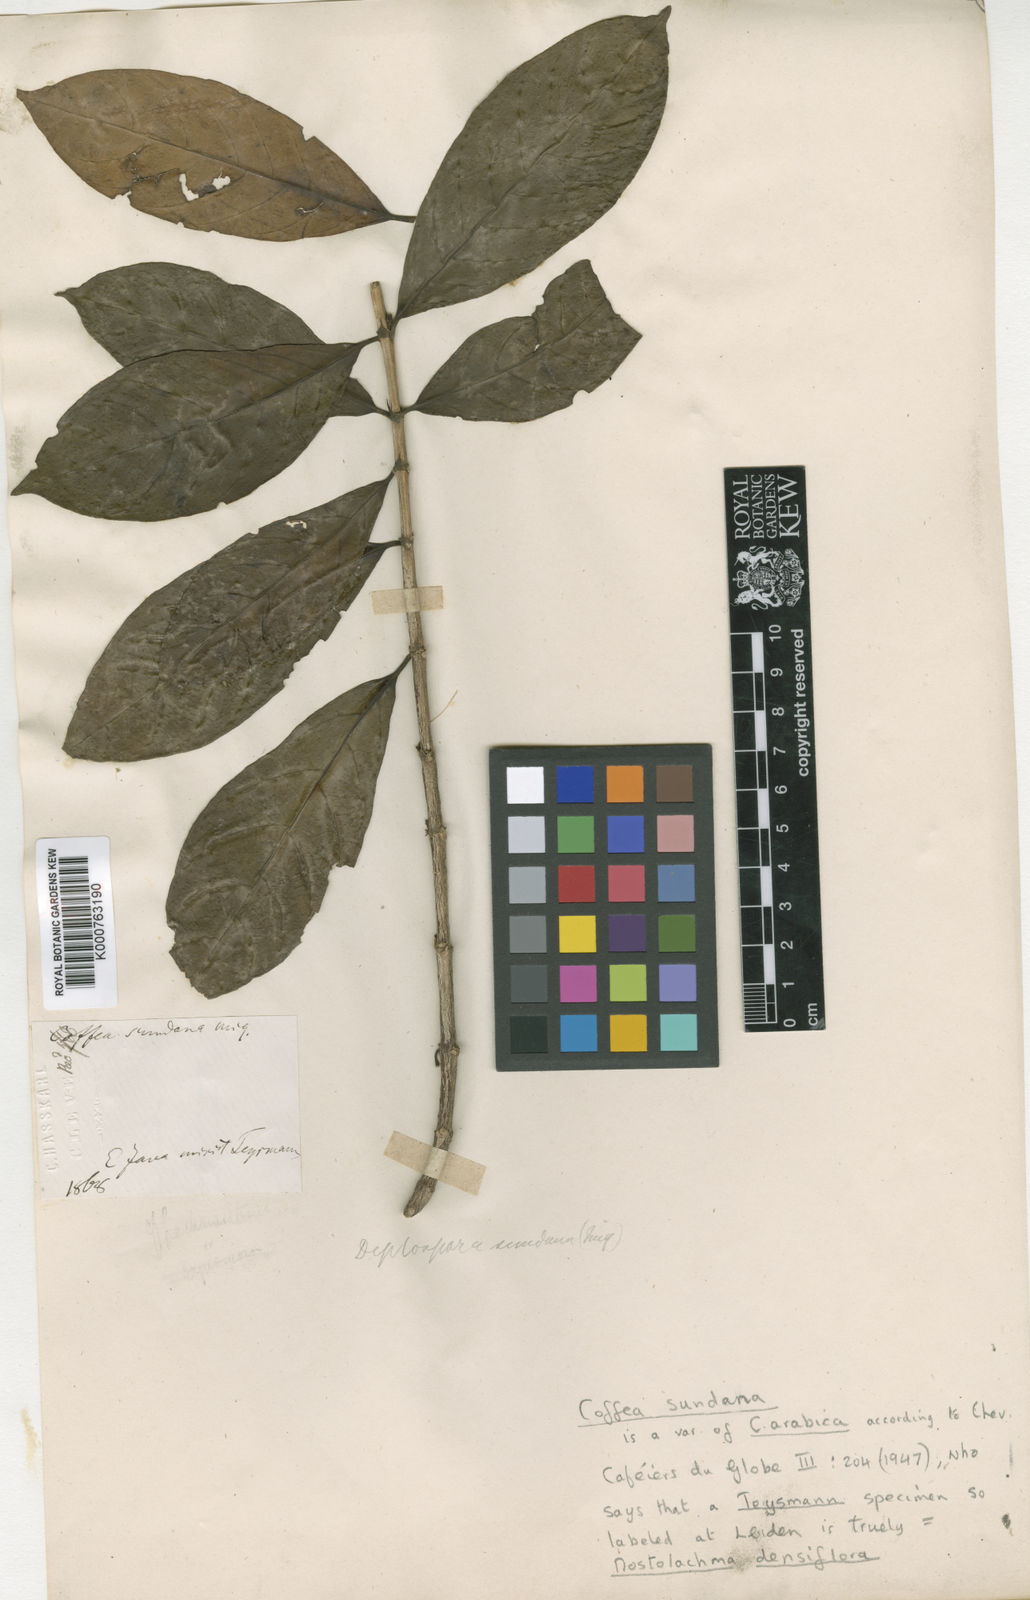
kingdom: Plantae
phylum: Tracheophyta
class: Magnoliopsida
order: Gentianales
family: Rubiaceae
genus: Nostolachma
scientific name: Nostolachma densiflora
